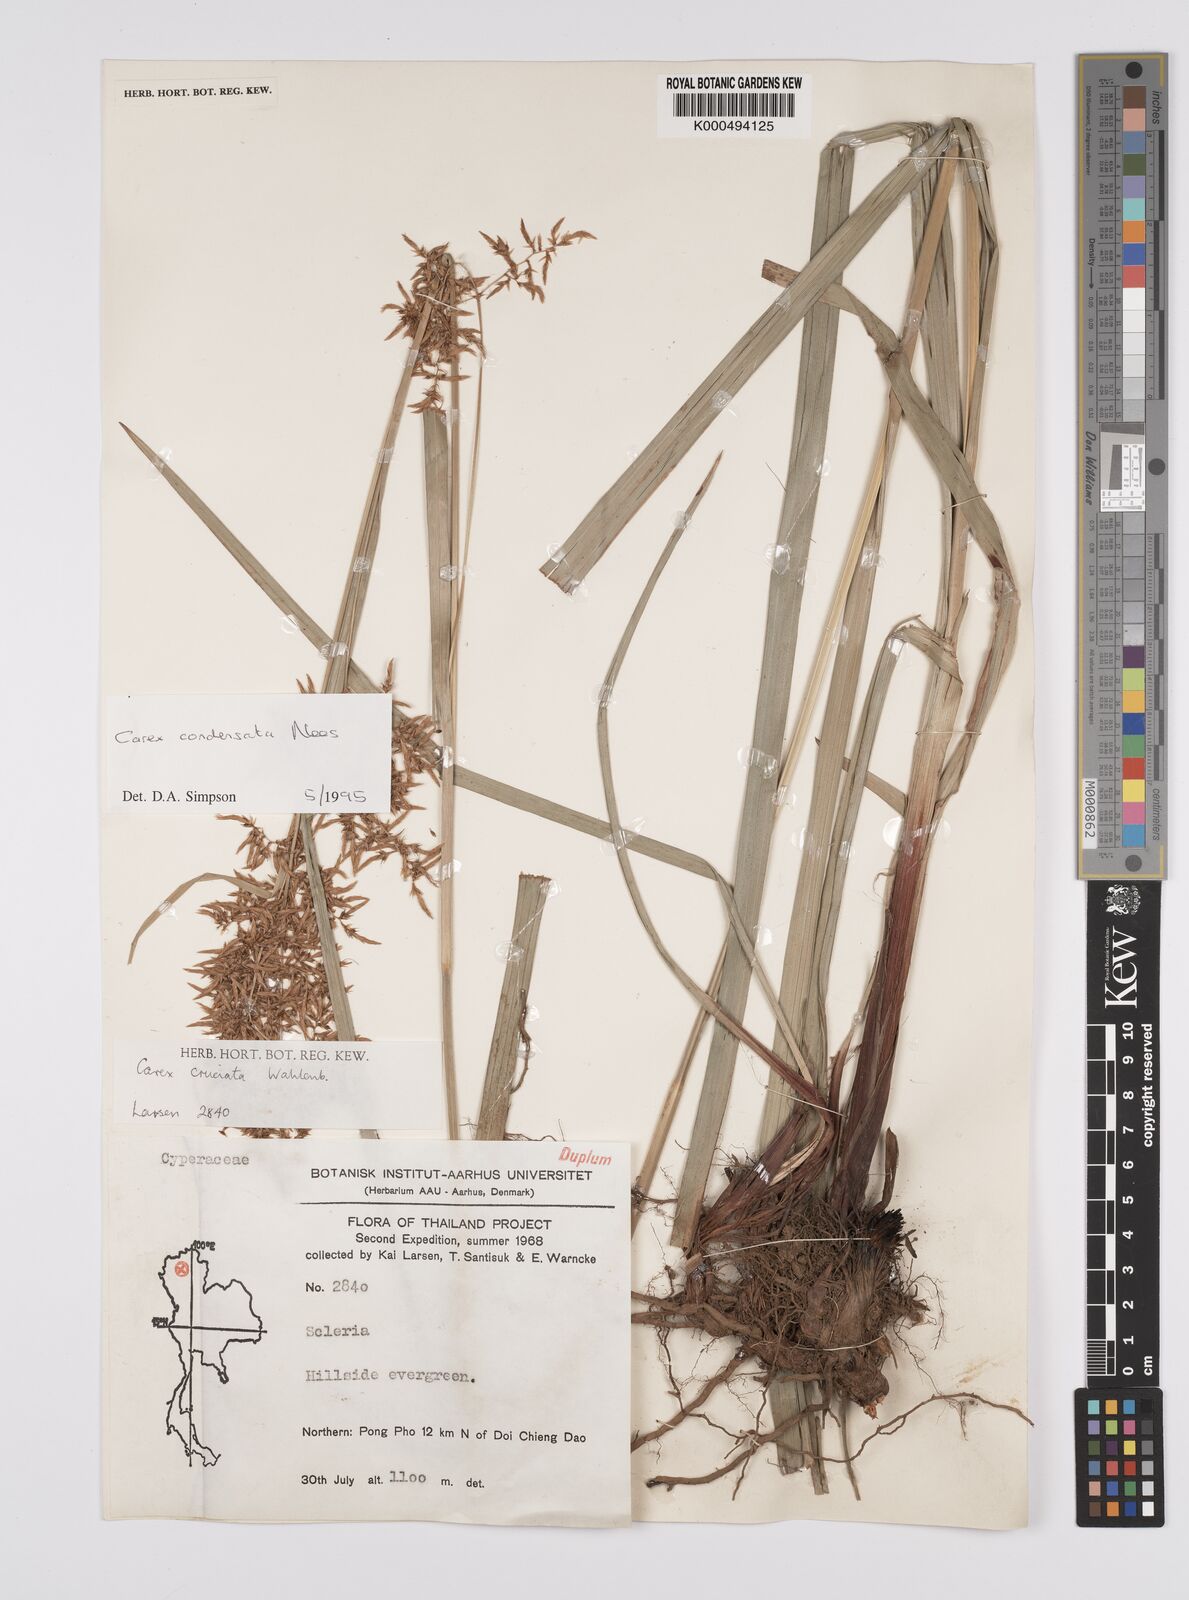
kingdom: Plantae
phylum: Tracheophyta
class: Liliopsida
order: Poales
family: Cyperaceae
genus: Carex
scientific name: Carex condensata
